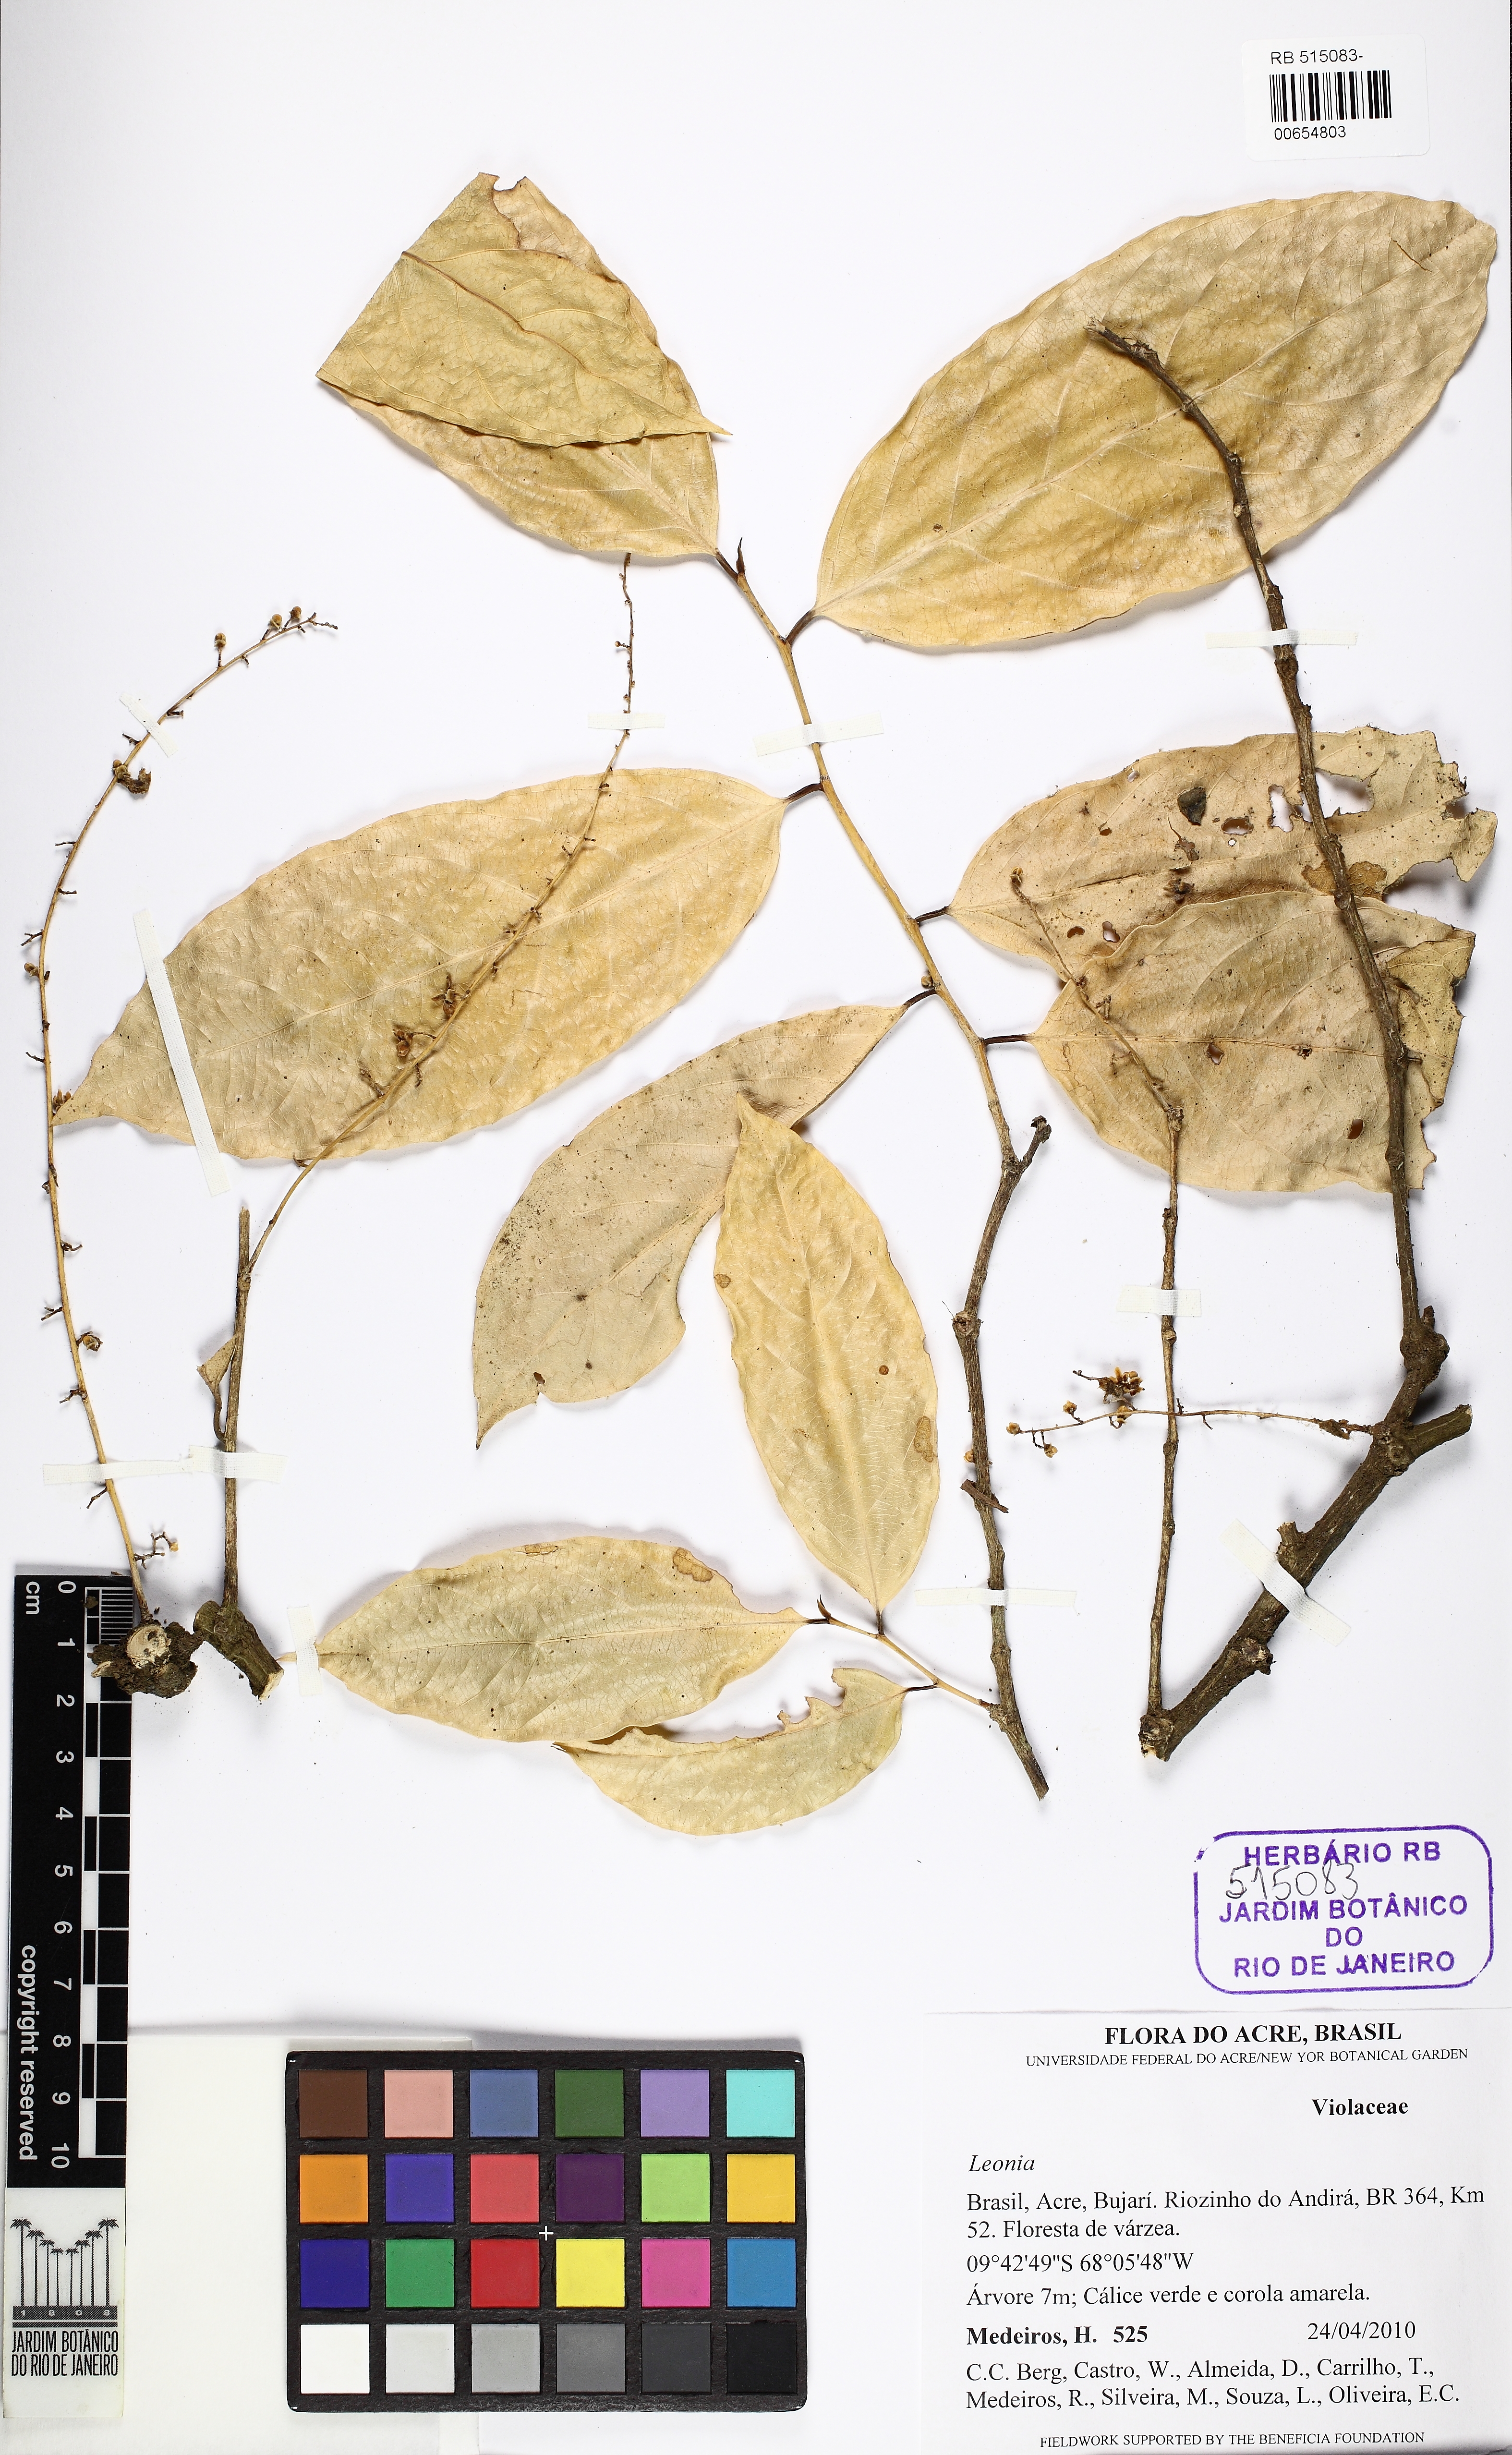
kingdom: Plantae
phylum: Tracheophyta
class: Magnoliopsida
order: Malpighiales
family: Violaceae
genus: Leonia
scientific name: Leonia
